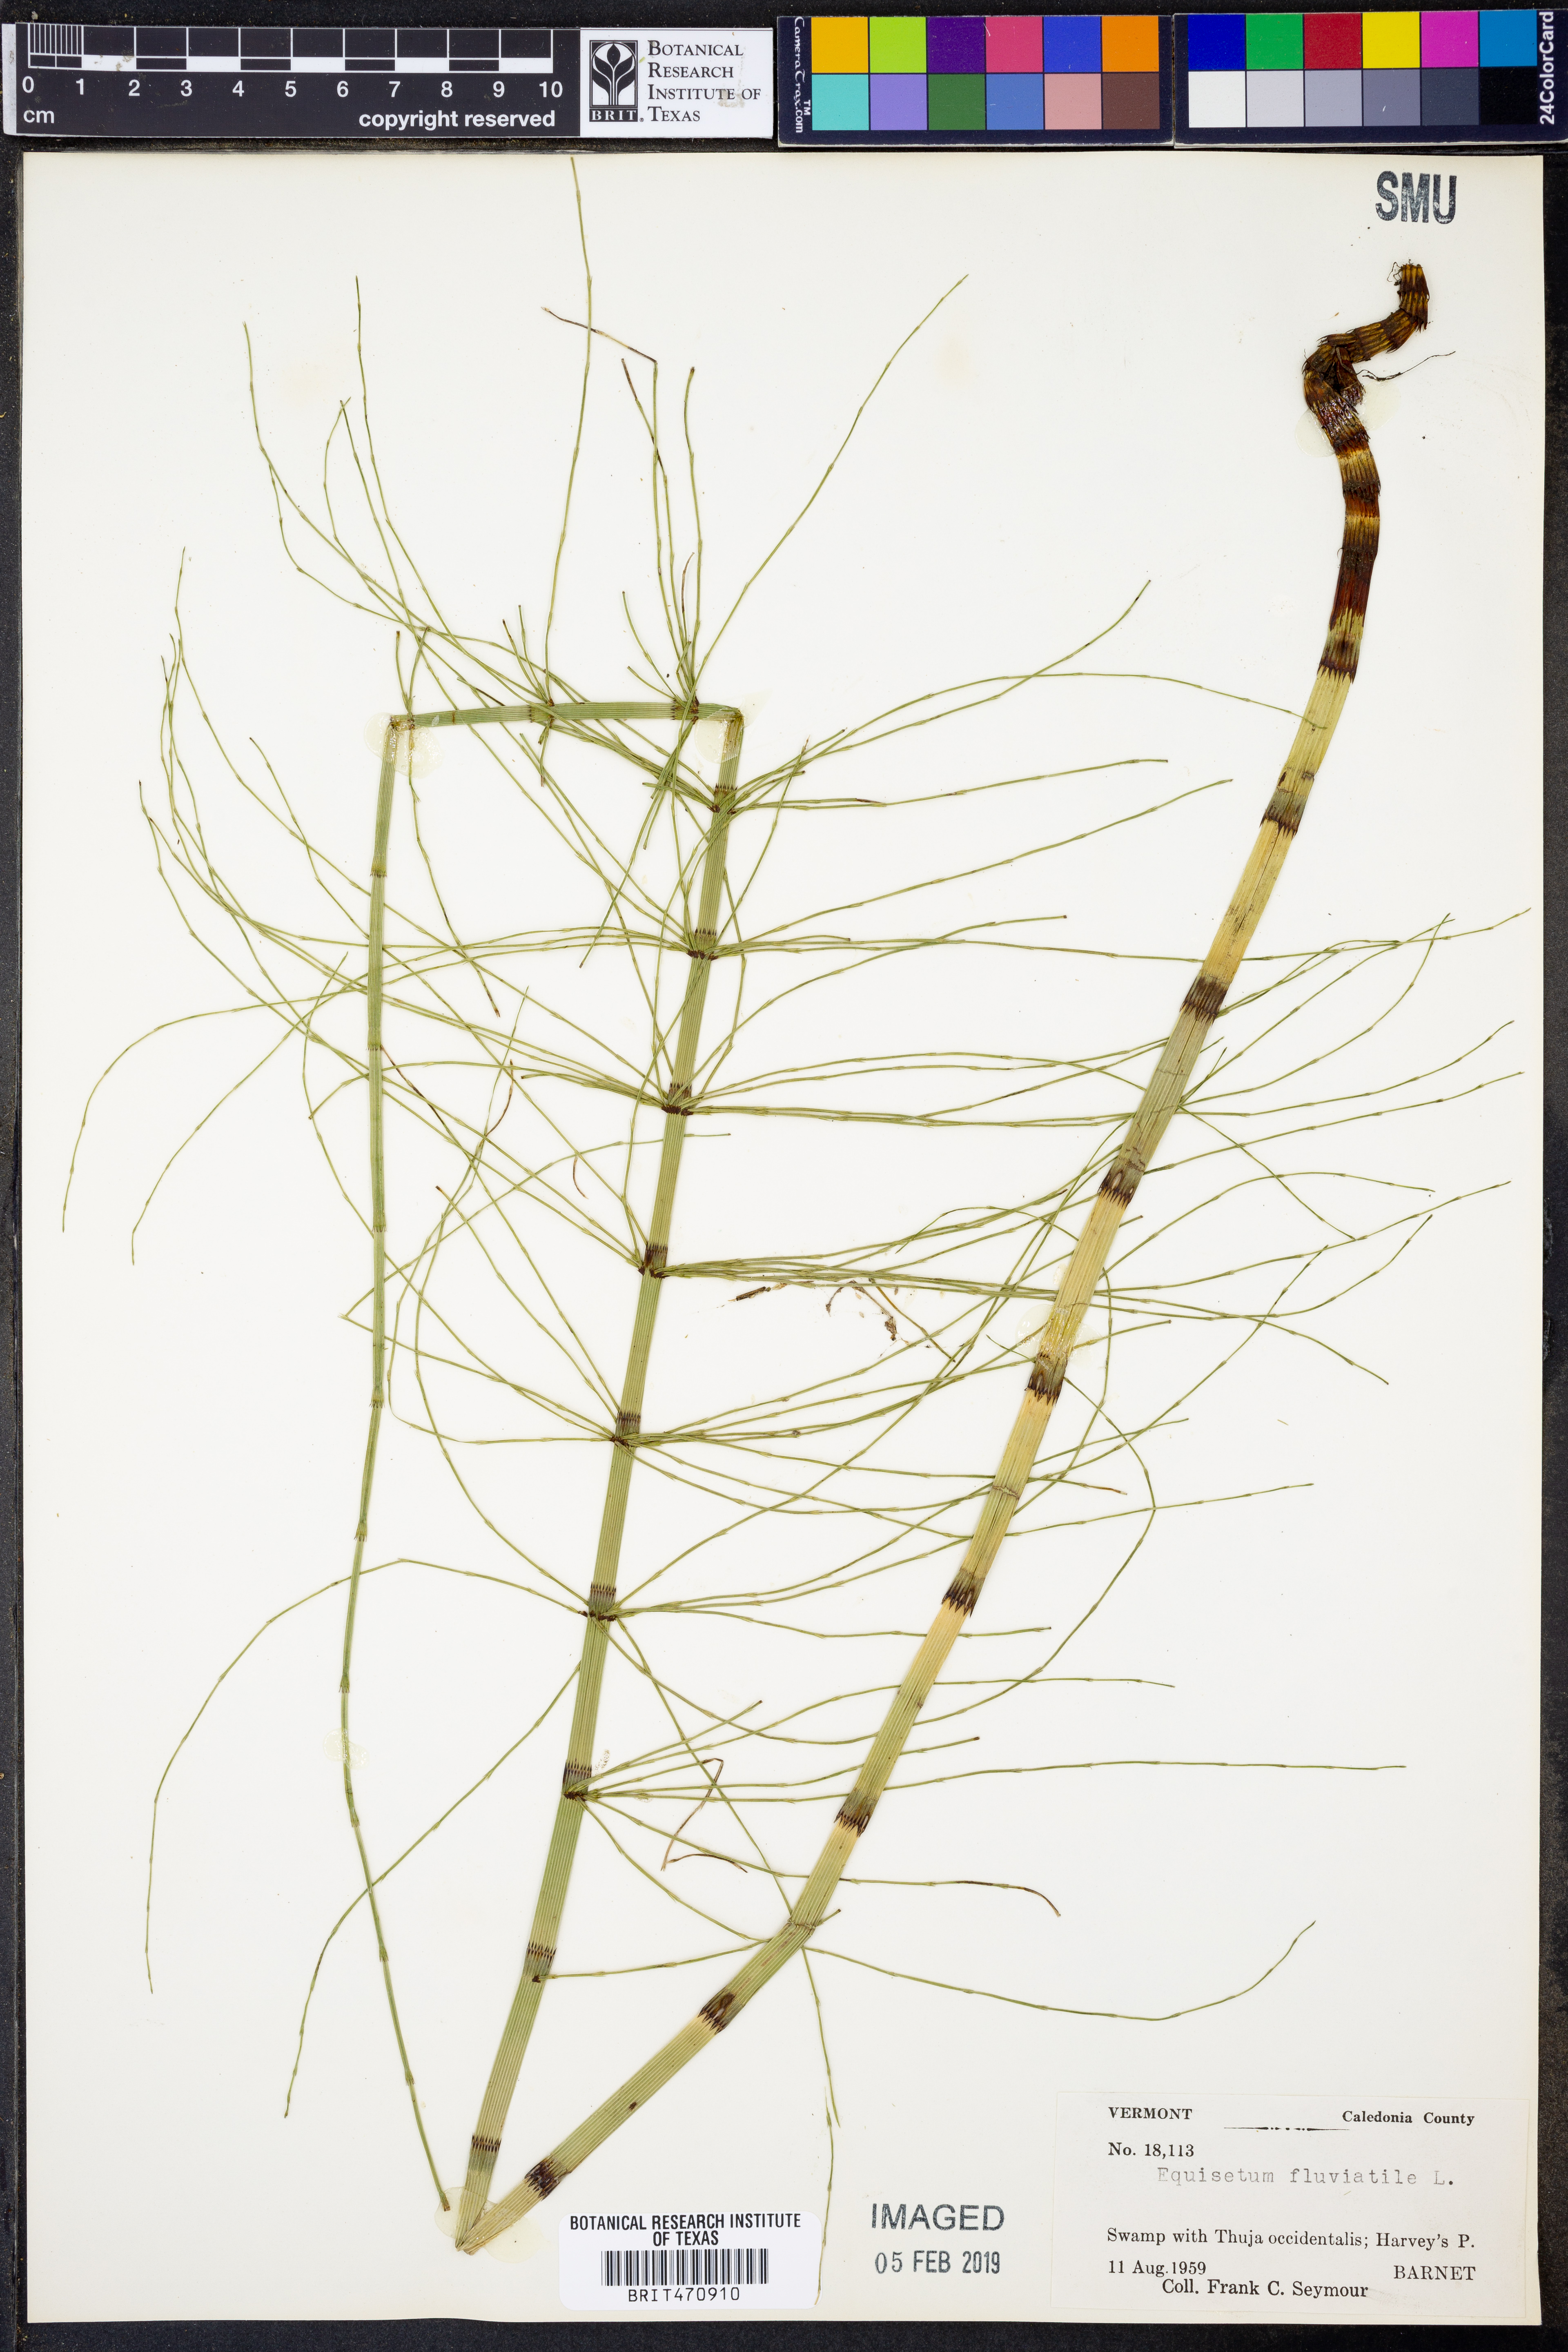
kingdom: Plantae
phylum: Tracheophyta
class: Polypodiopsida
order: Equisetales
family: Equisetaceae
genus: Equisetum
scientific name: Equisetum fluviatile
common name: Water horsetail
